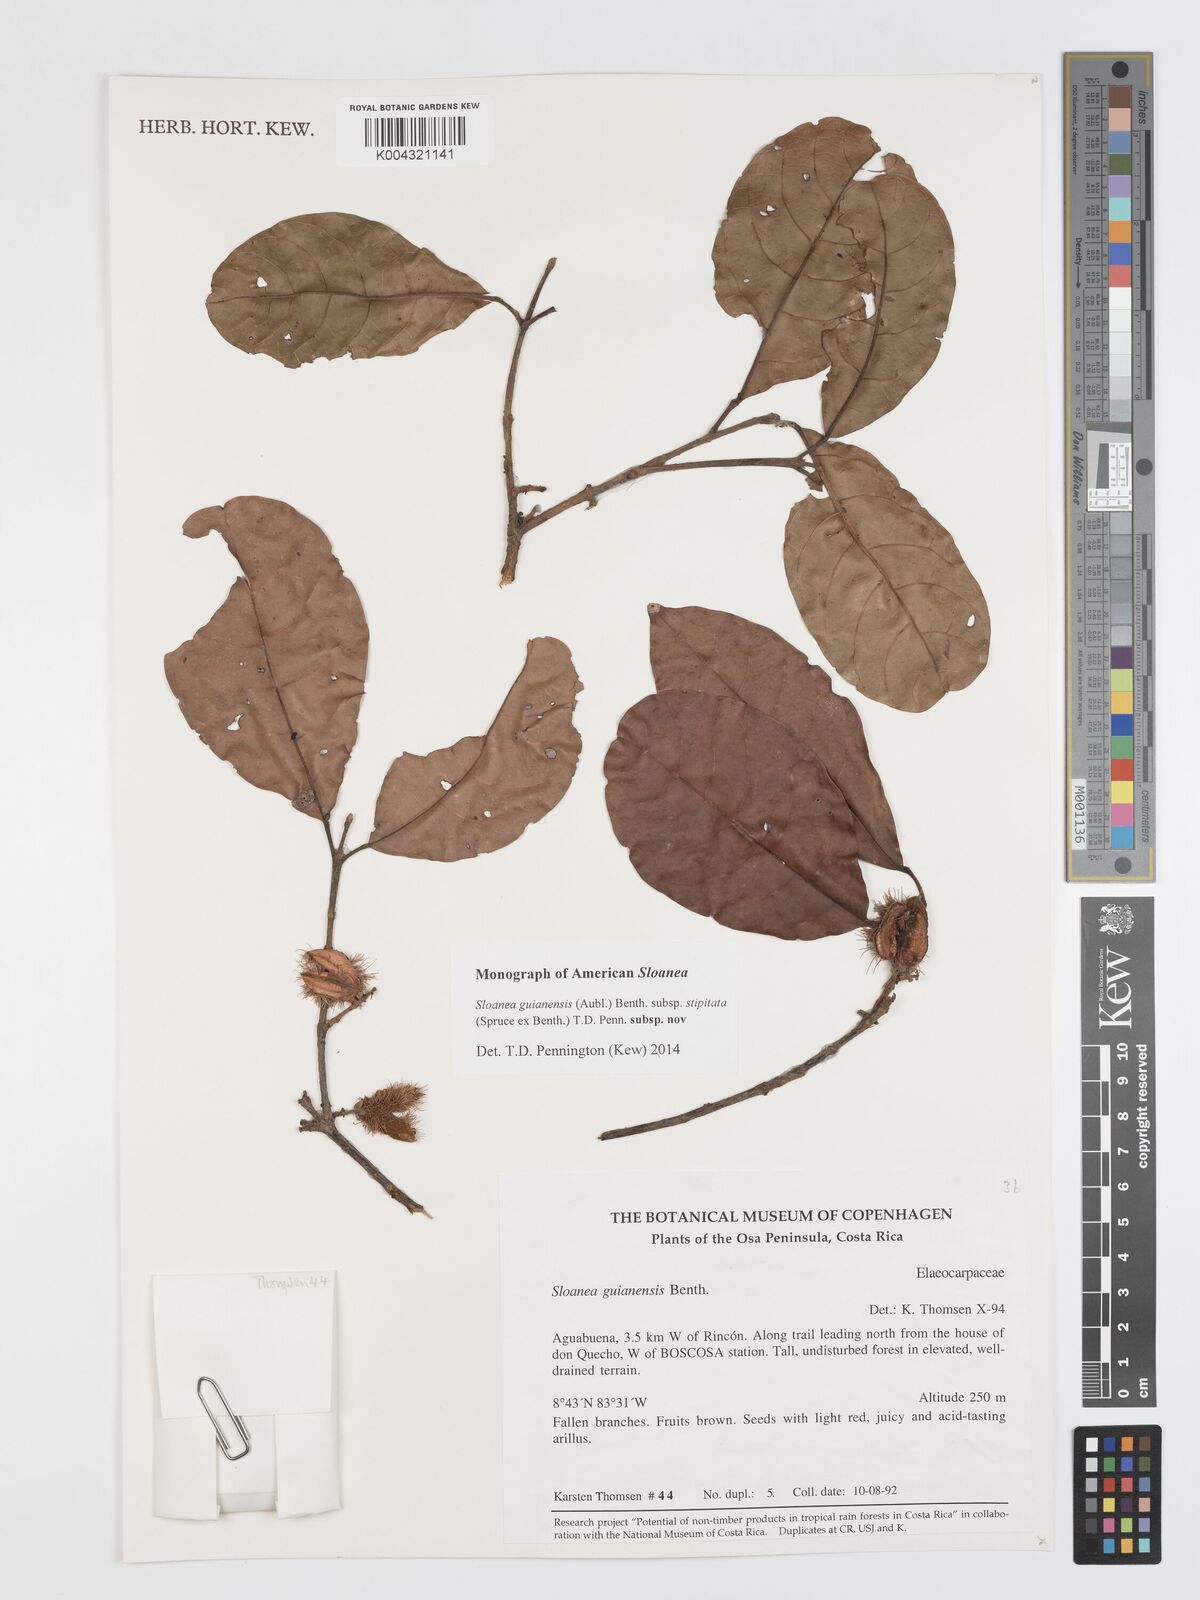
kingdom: Plantae
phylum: Tracheophyta
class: Magnoliopsida
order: Oxalidales
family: Elaeocarpaceae
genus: Sloanea
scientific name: Sloanea guianensis
